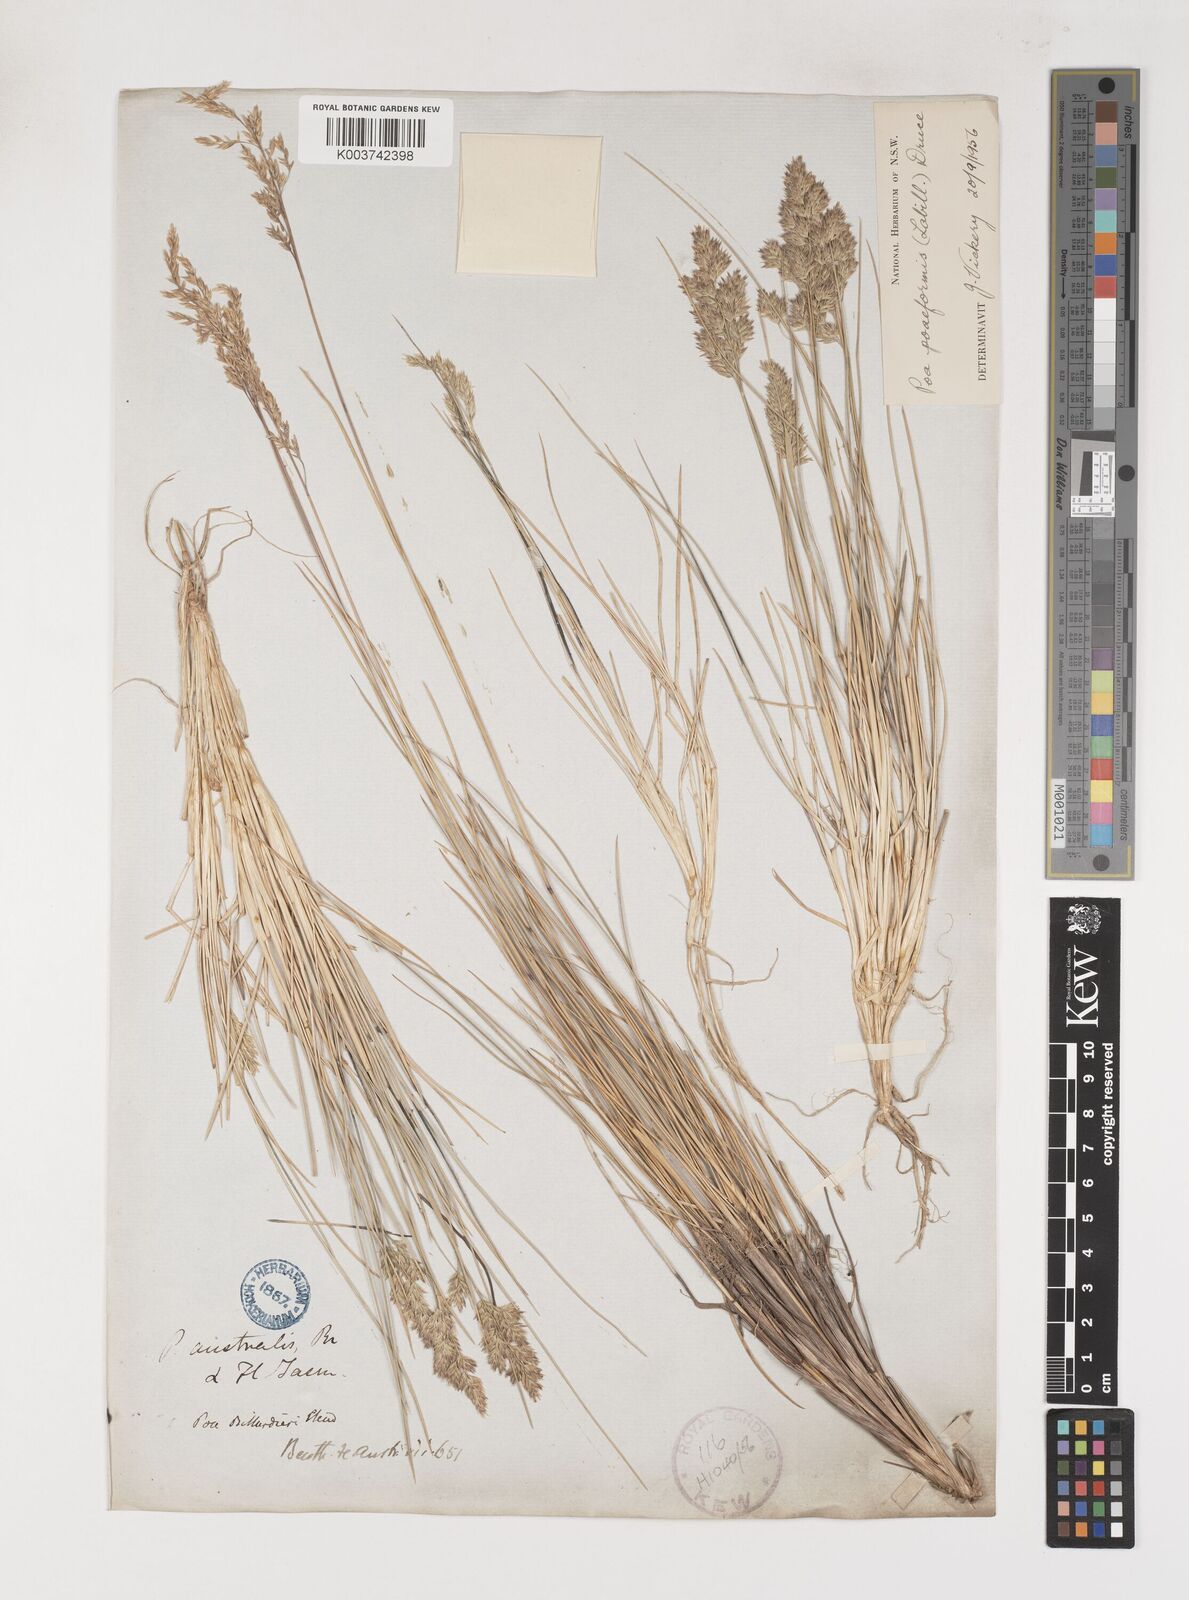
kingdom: Plantae
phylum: Tracheophyta
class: Liliopsida
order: Poales
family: Poaceae
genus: Poa
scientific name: Poa poiformis
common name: Tussock poa
